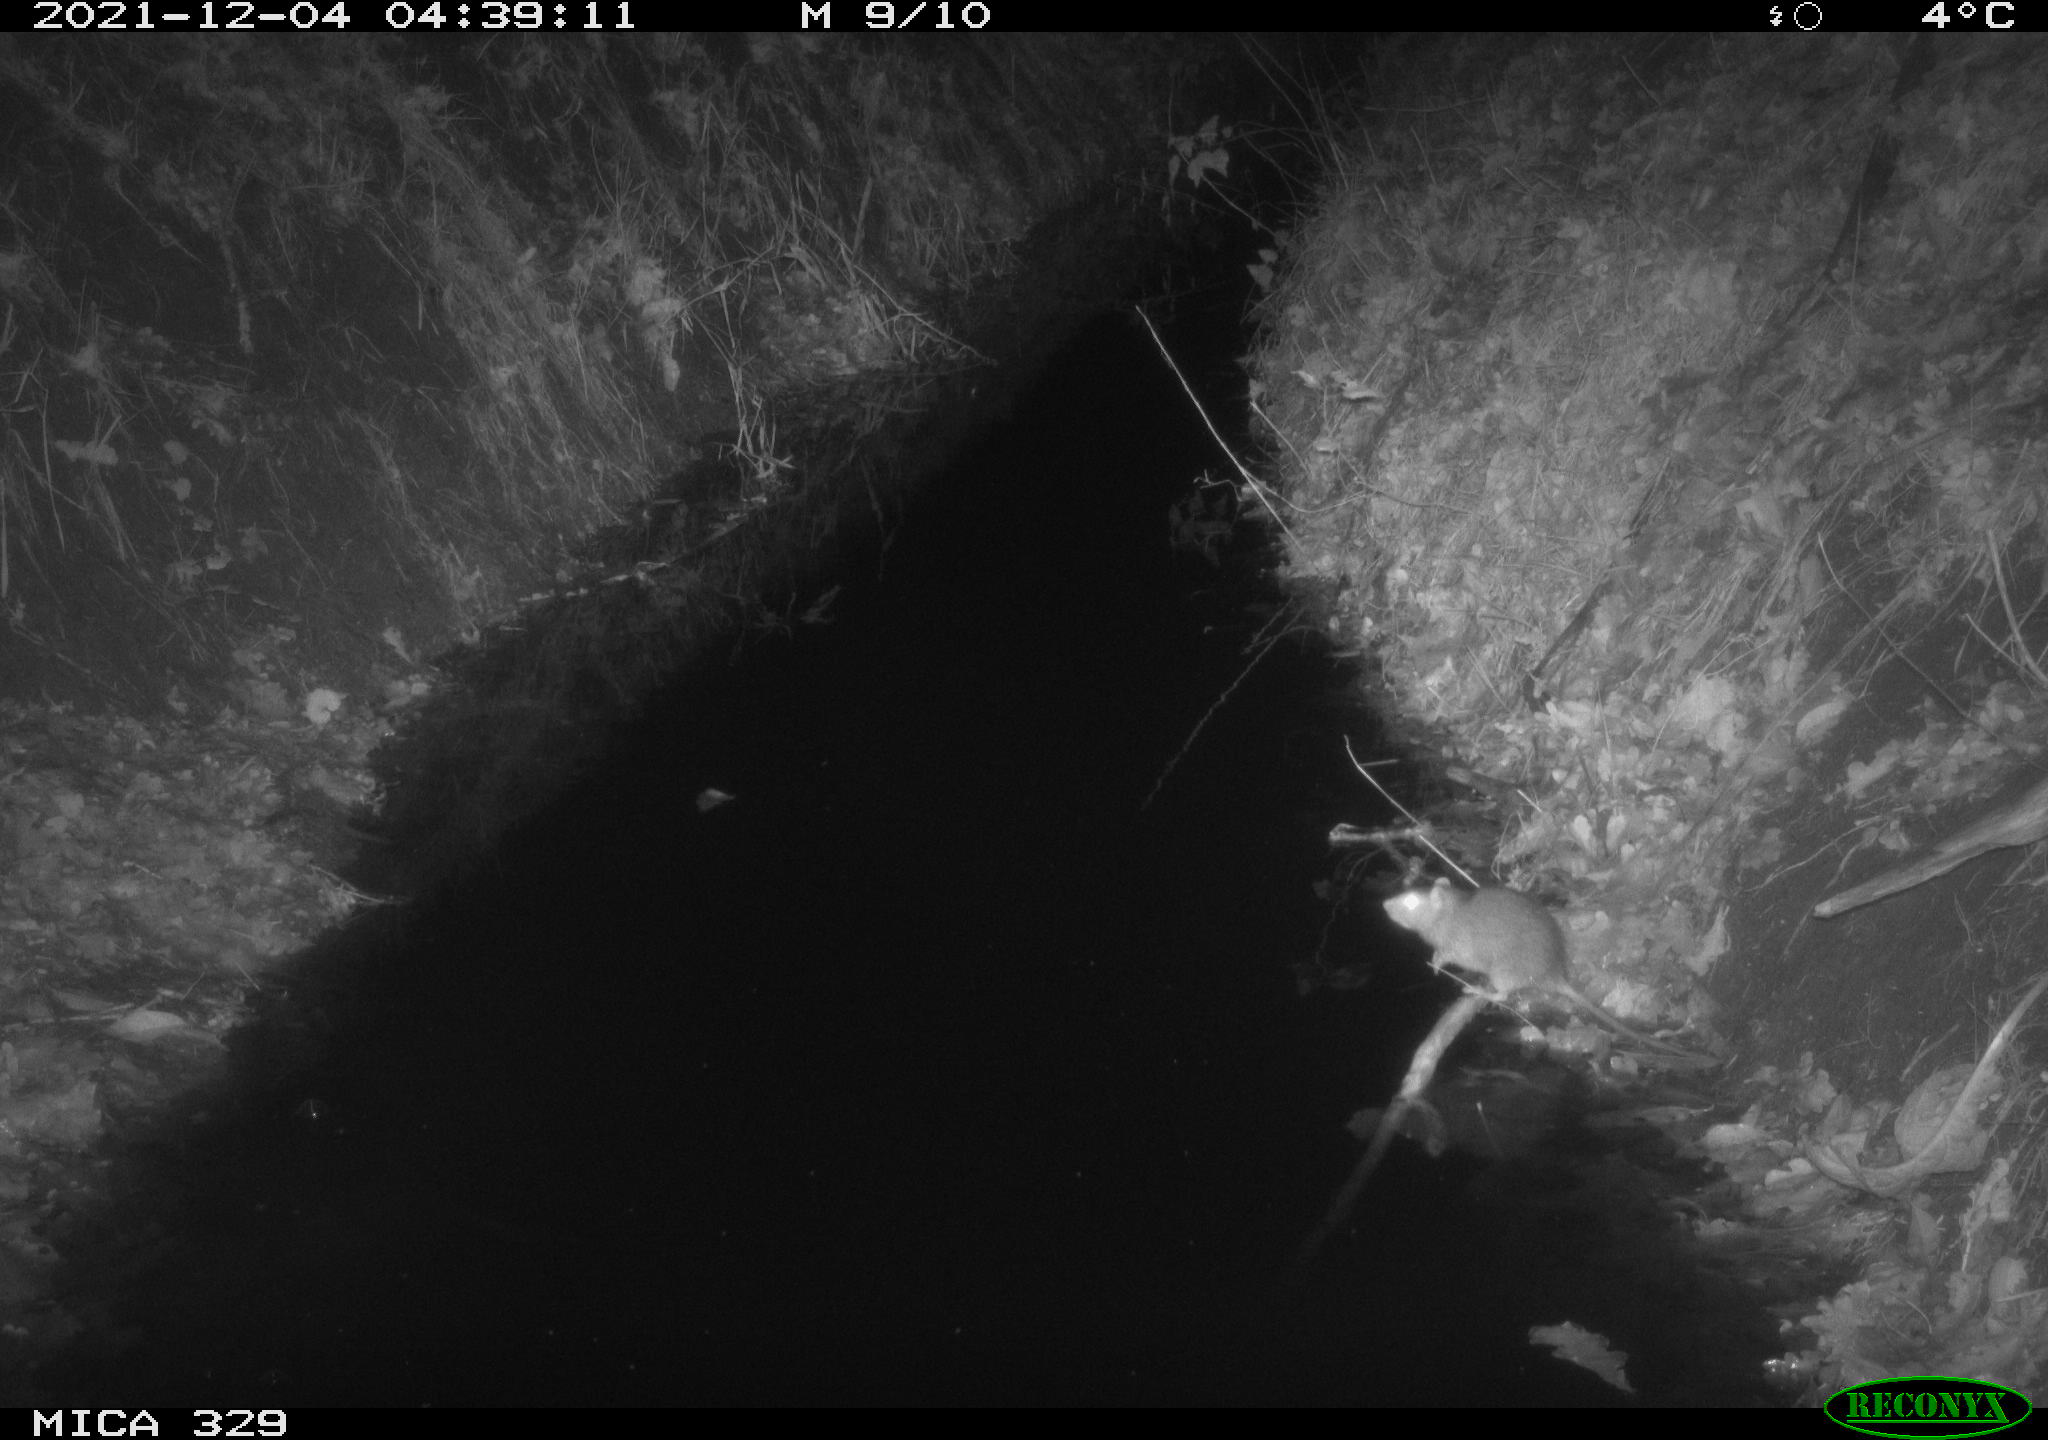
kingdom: Animalia
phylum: Chordata
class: Mammalia
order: Rodentia
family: Muridae
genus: Rattus
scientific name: Rattus norvegicus
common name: Brown rat
